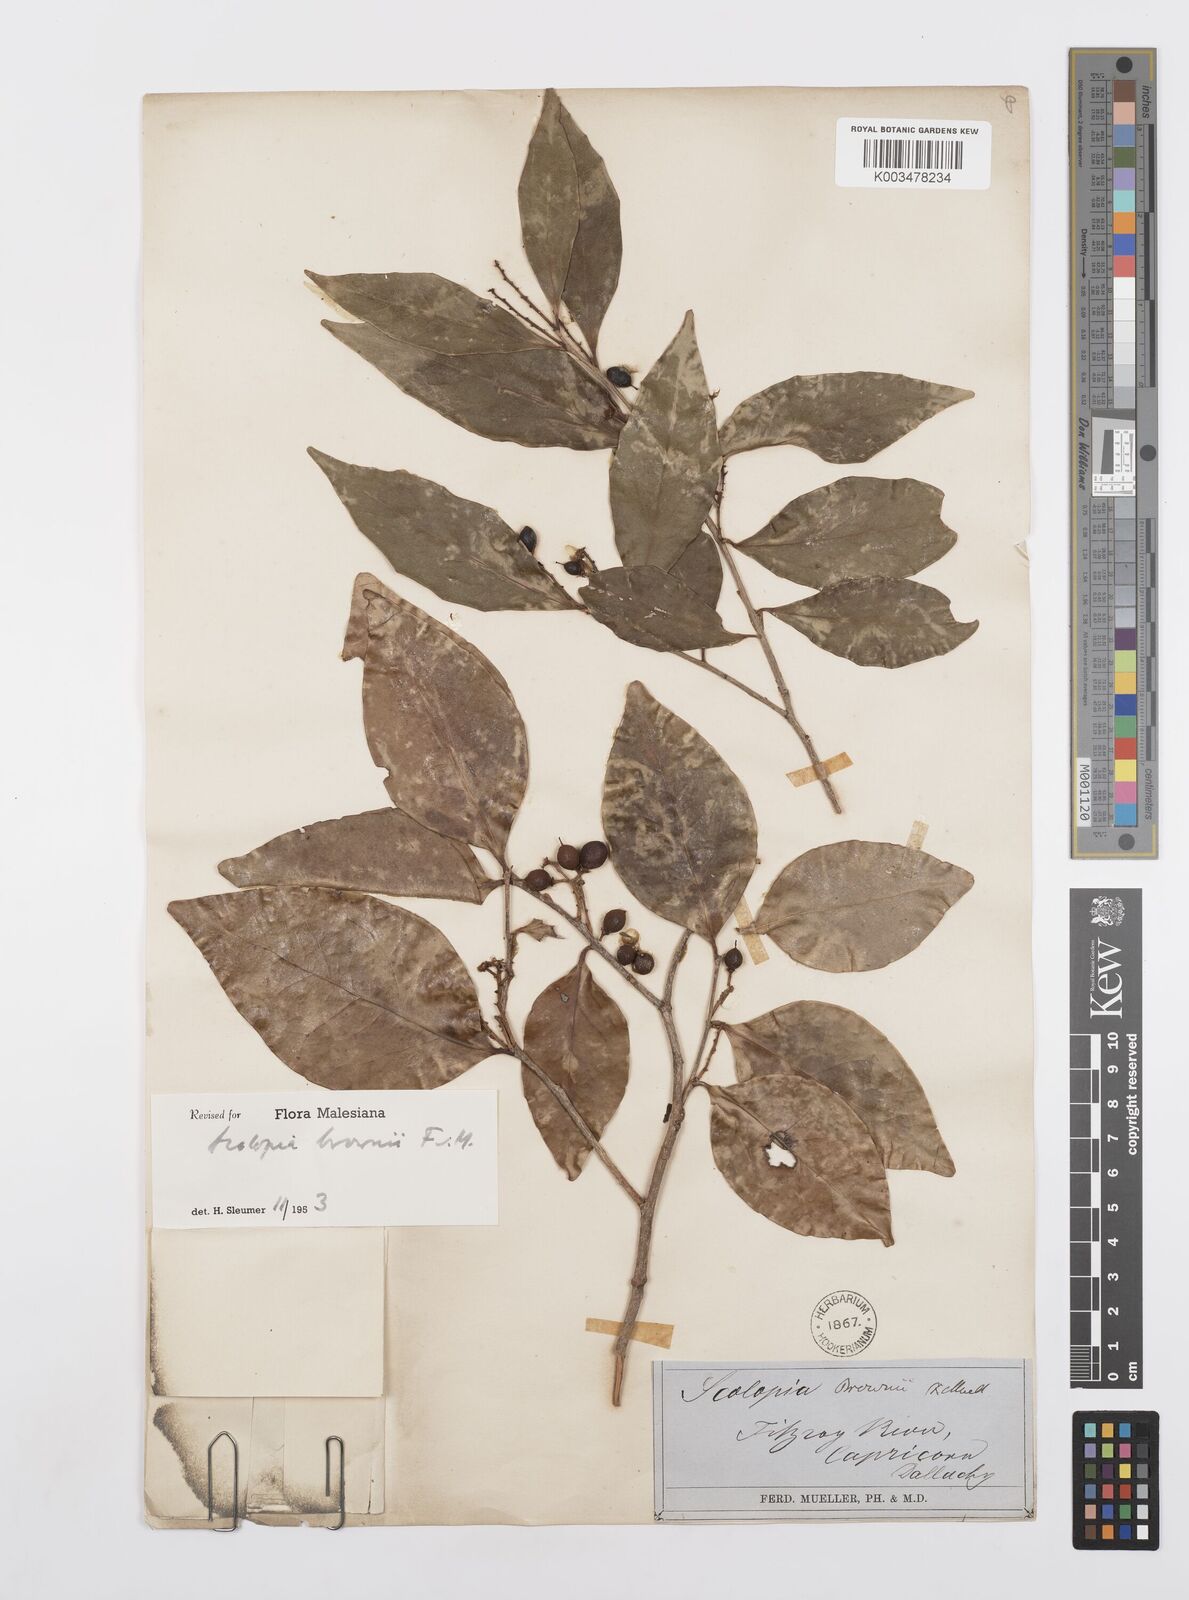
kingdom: Plantae
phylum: Tracheophyta
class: Magnoliopsida
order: Malpighiales
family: Salicaceae
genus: Scolopia
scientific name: Scolopia braunii
